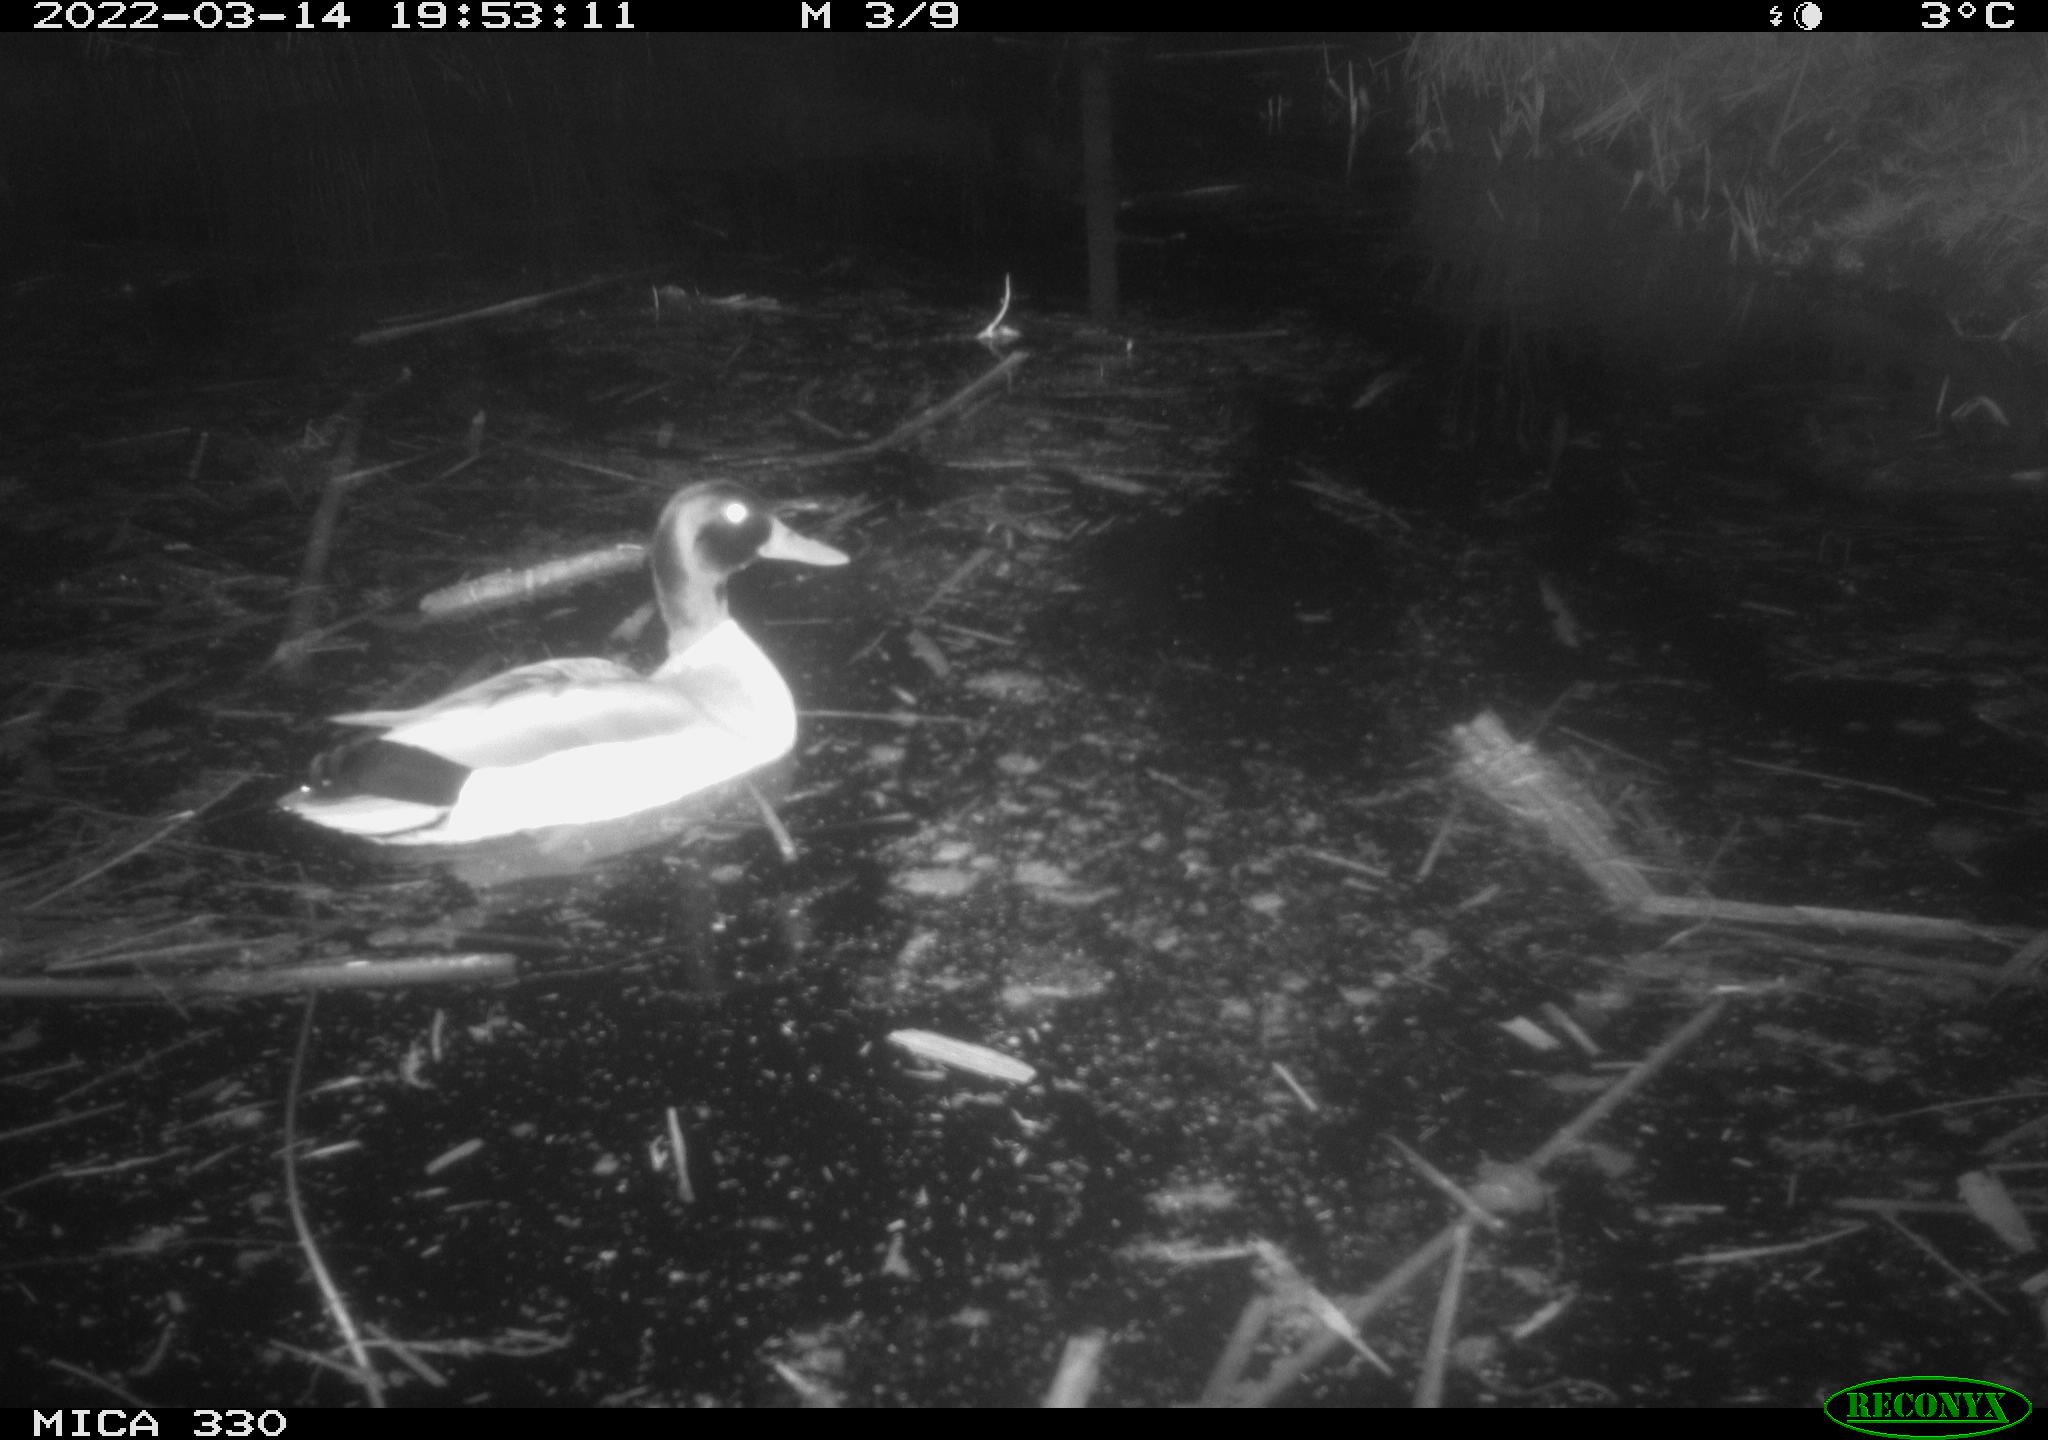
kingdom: Animalia
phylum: Chordata
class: Aves
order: Anseriformes
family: Anatidae
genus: Anas
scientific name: Anas platyrhynchos
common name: Mallard
